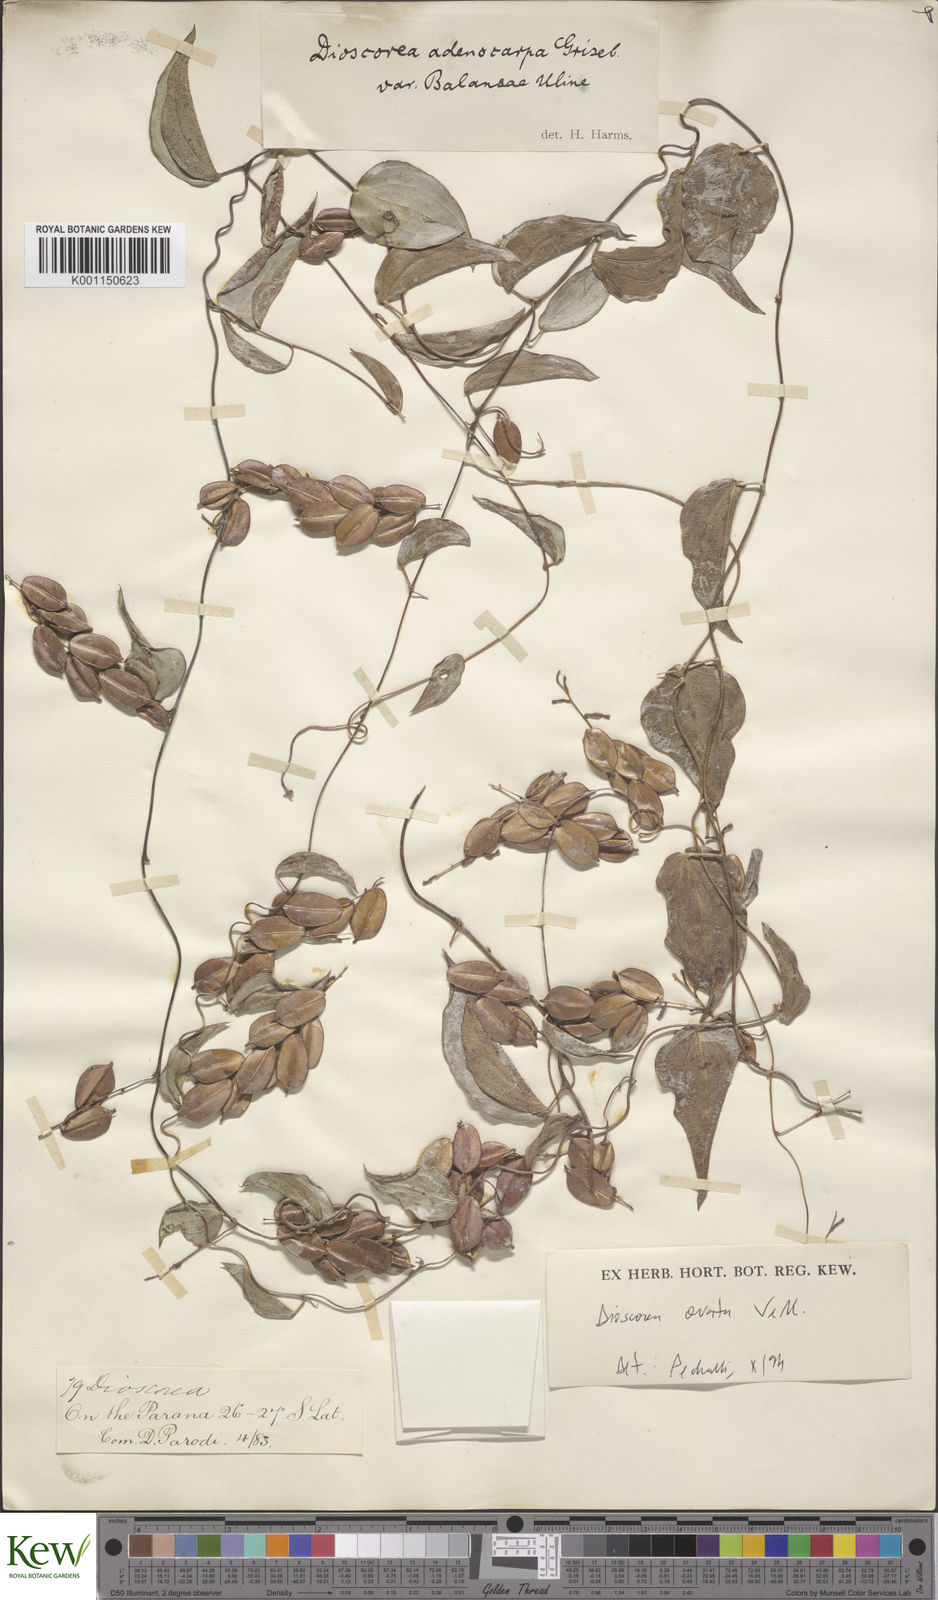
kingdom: Plantae
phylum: Tracheophyta
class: Liliopsida
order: Dioscoreales
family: Dioscoreaceae
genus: Dioscorea
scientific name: Dioscorea ovata
